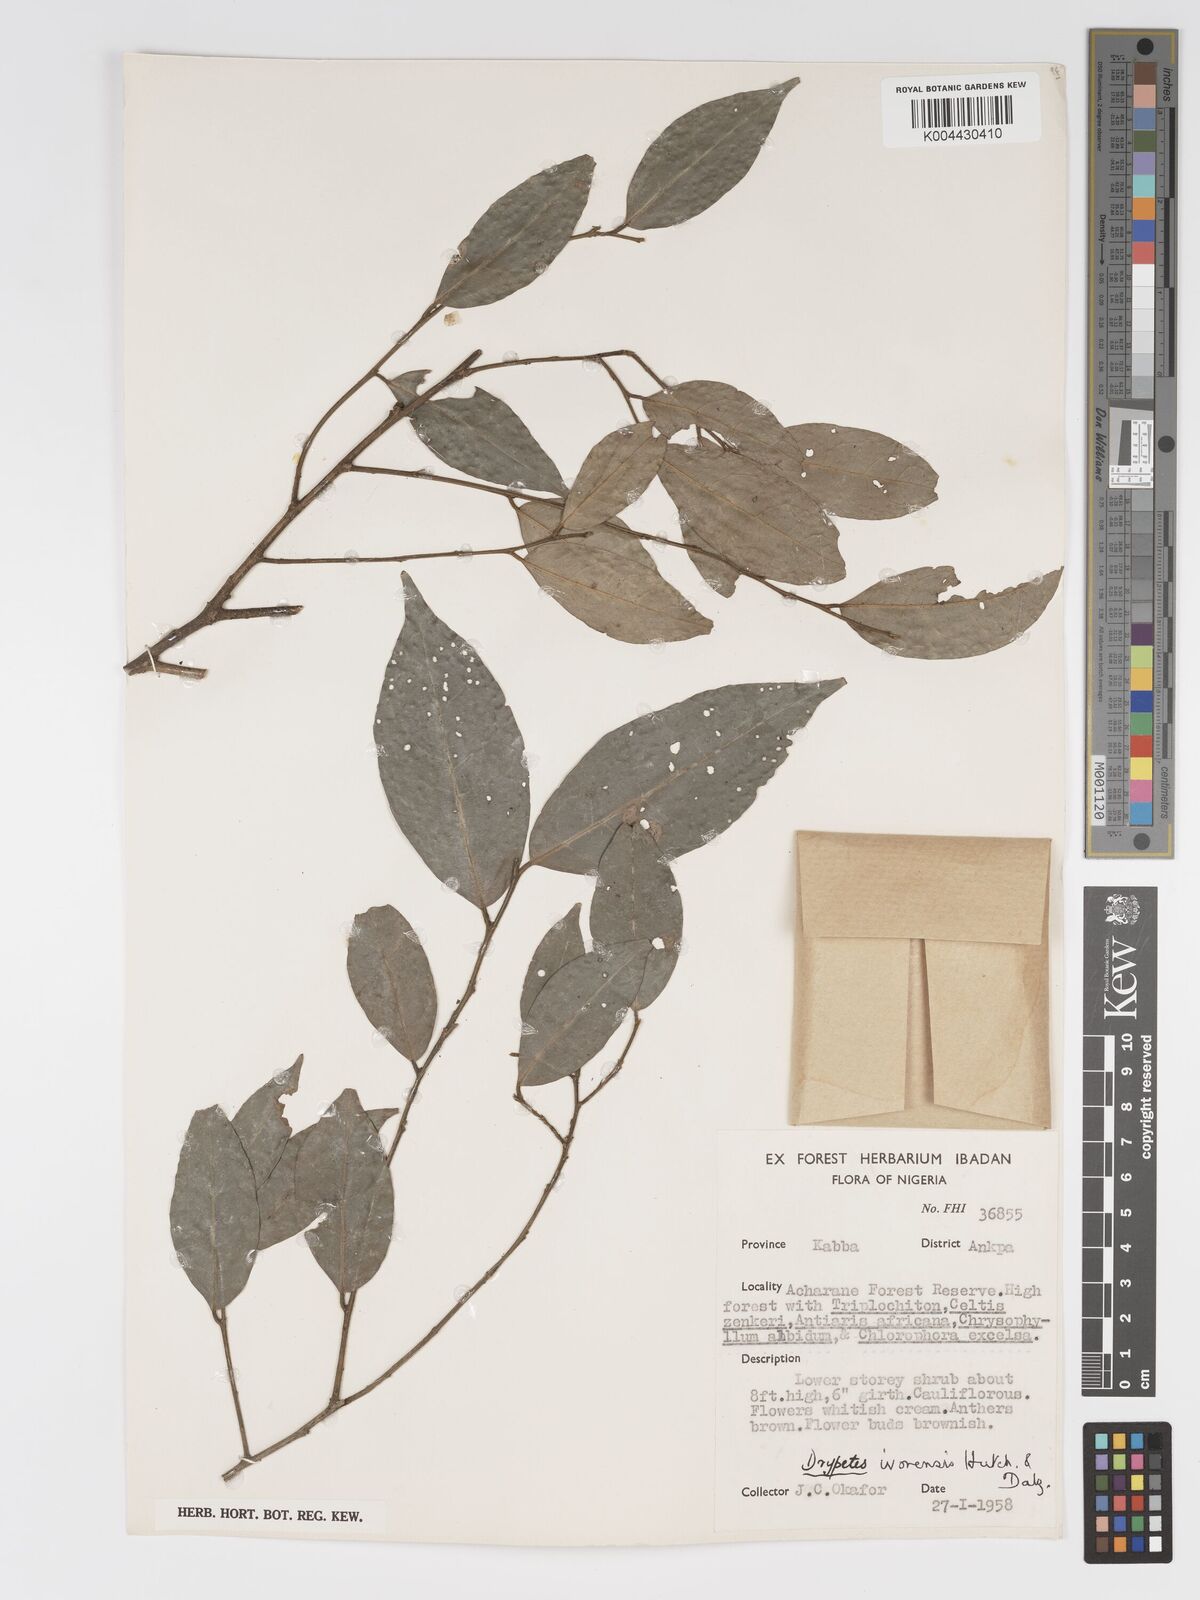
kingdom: Plantae
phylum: Tracheophyta
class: Magnoliopsida
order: Malpighiales
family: Putranjivaceae
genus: Drypetes
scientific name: Drypetes ivorensis
